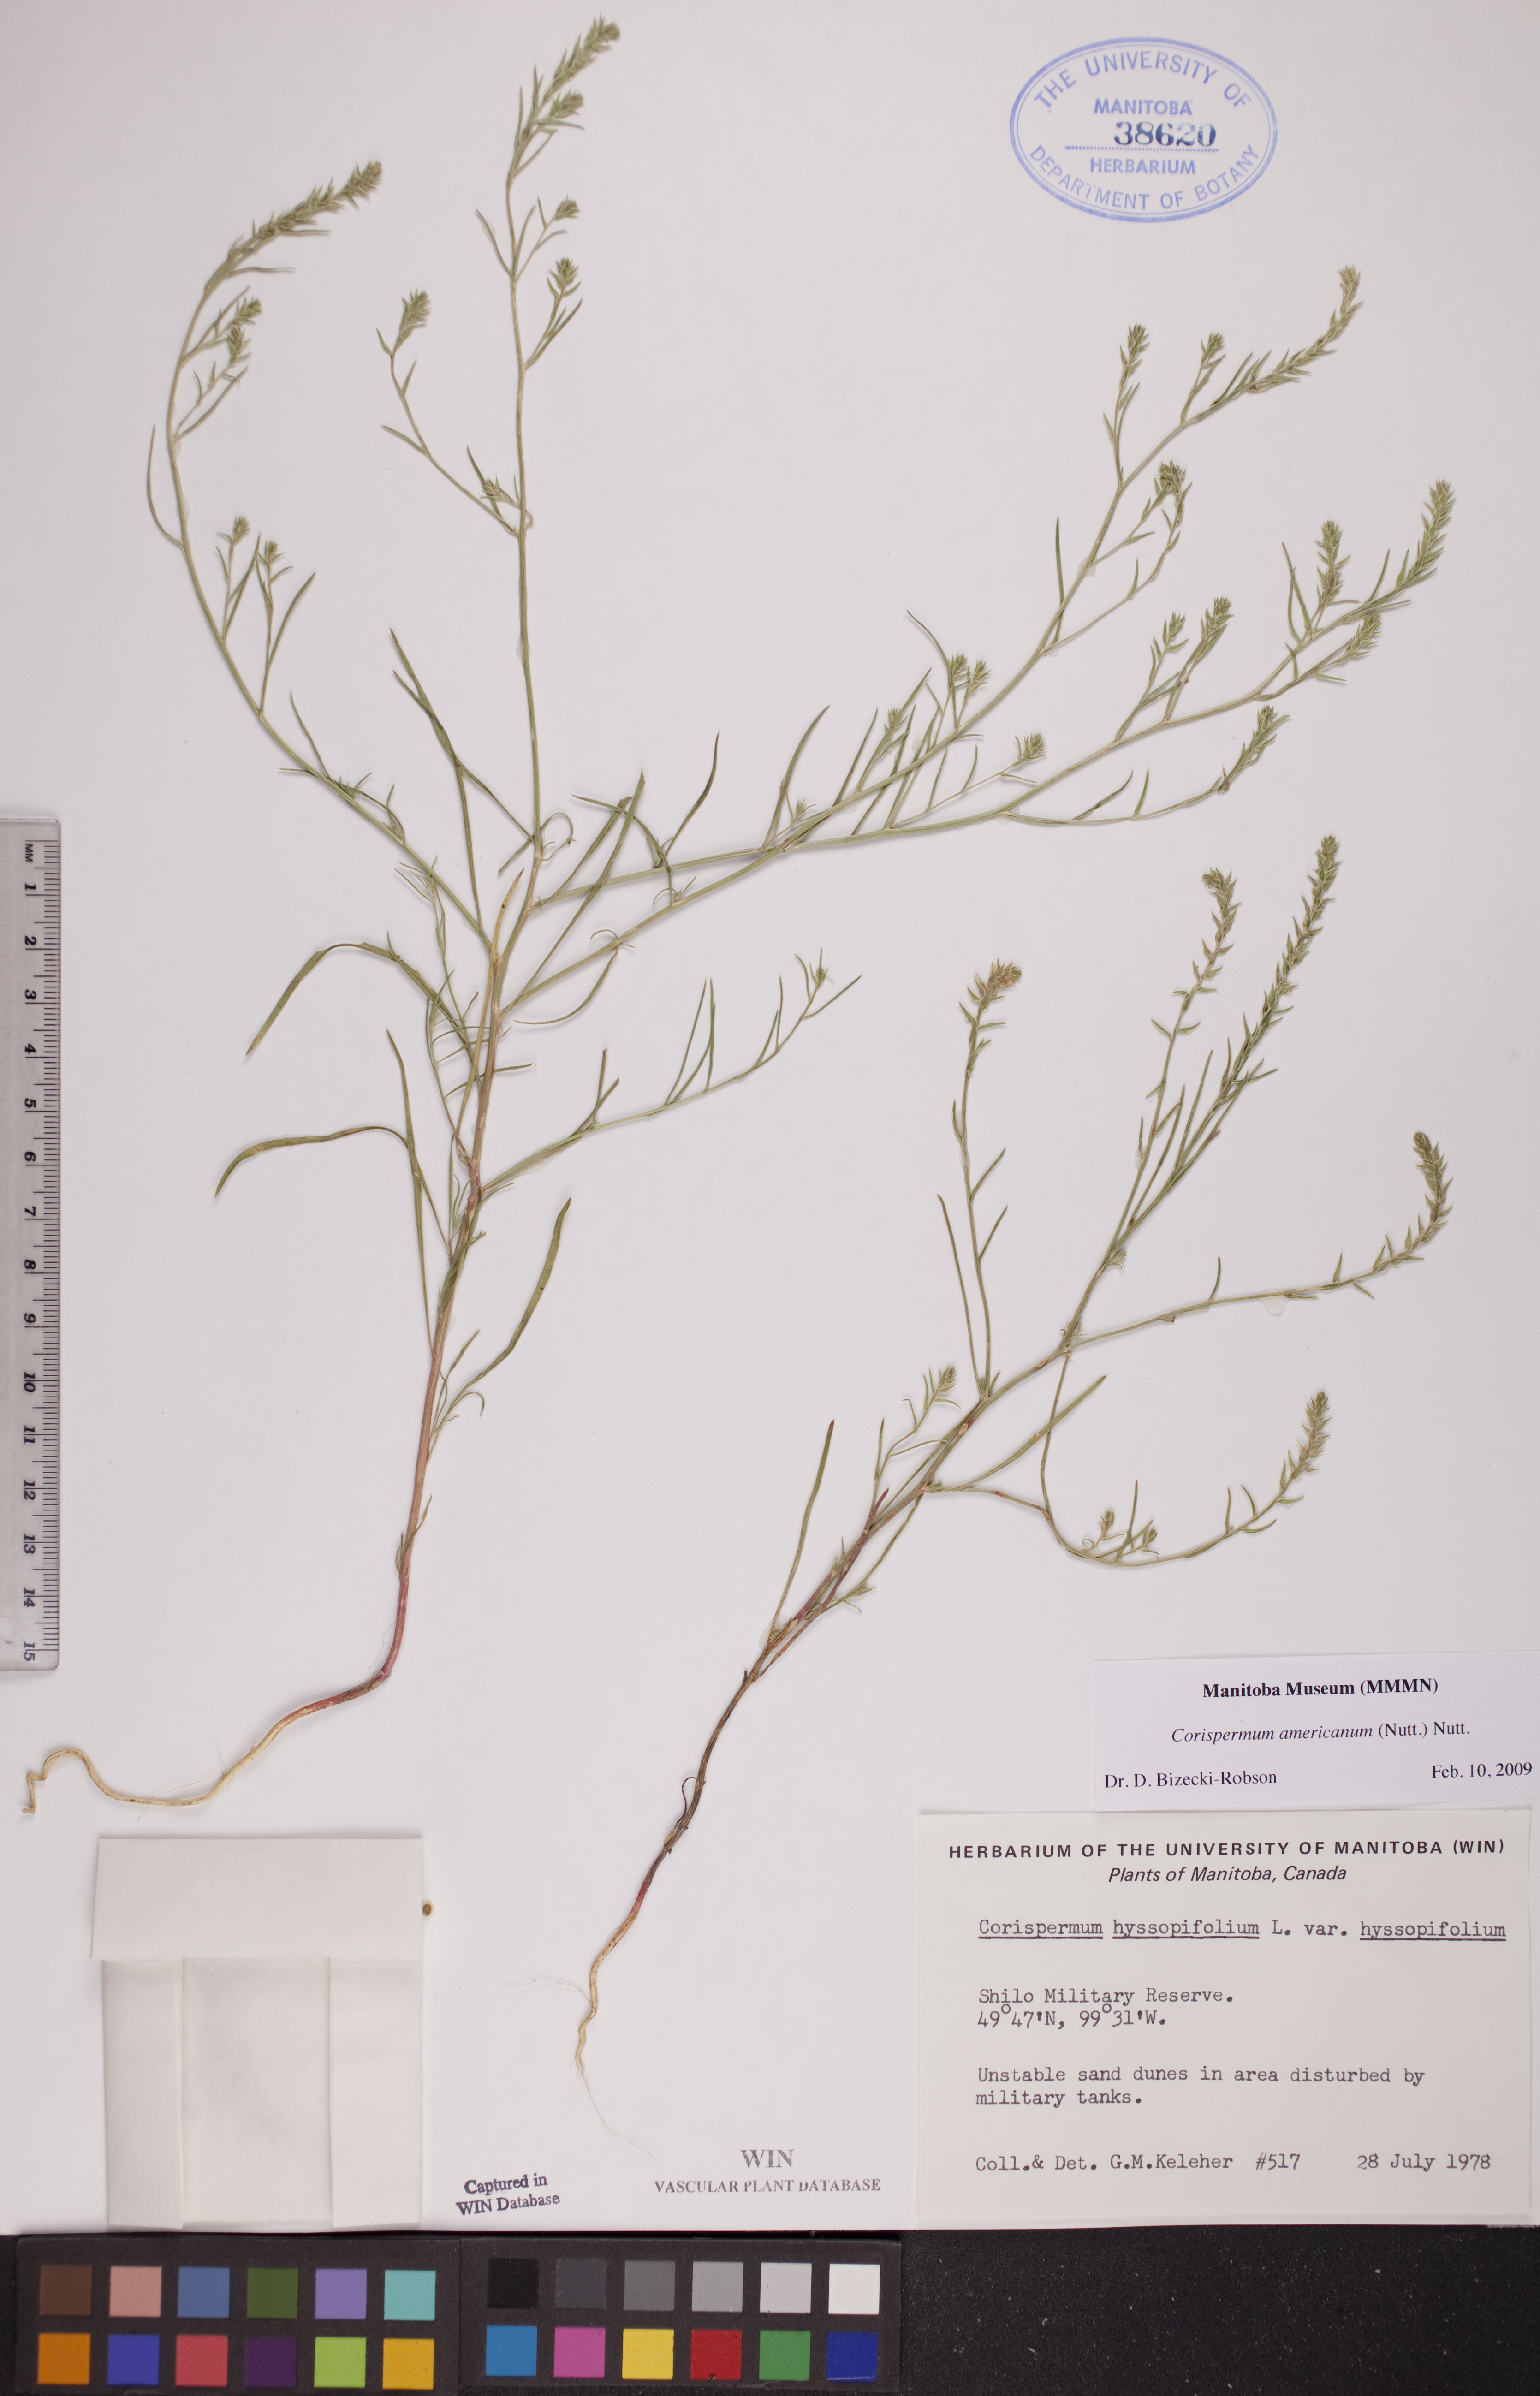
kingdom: Plantae
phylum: Tracheophyta
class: Magnoliopsida
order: Caryophyllales
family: Amaranthaceae
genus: Corispermum
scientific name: Corispermum americanum
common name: American bugseed
